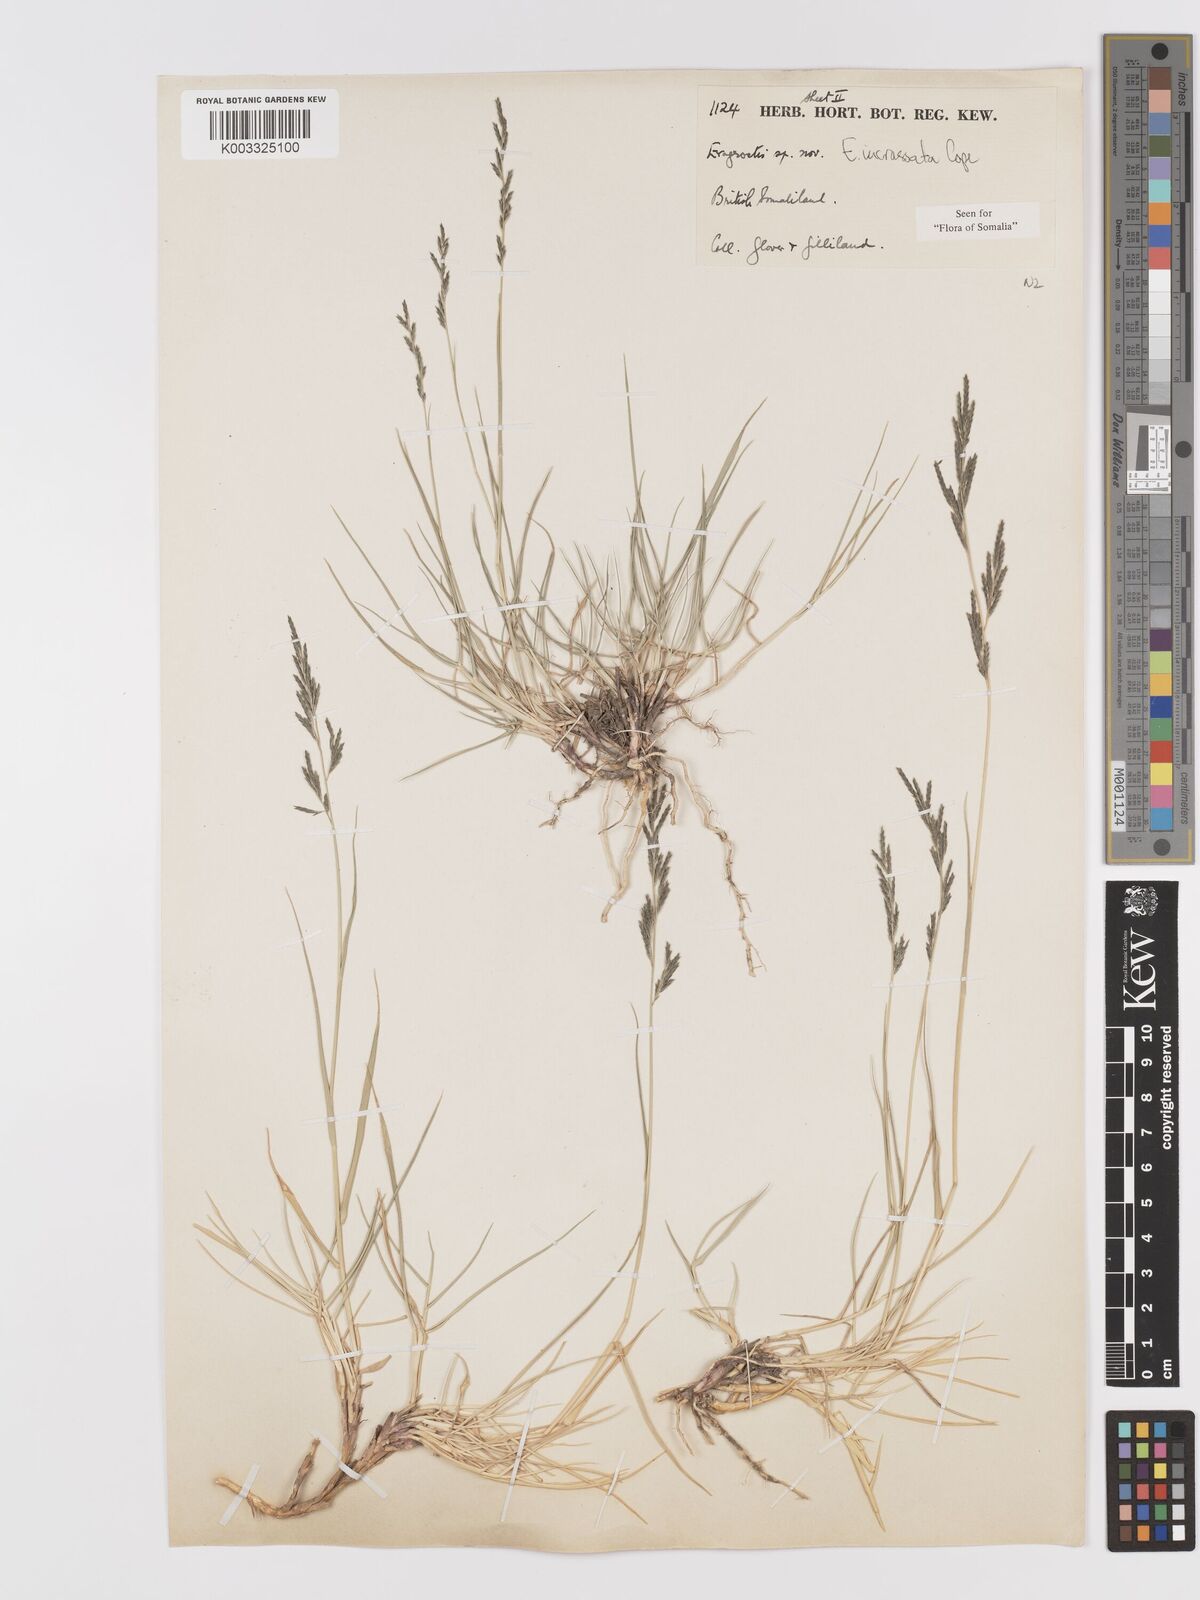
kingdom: Plantae
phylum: Tracheophyta
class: Liliopsida
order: Poales
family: Poaceae
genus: Eragrostis
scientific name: Eragrostis incrassata
